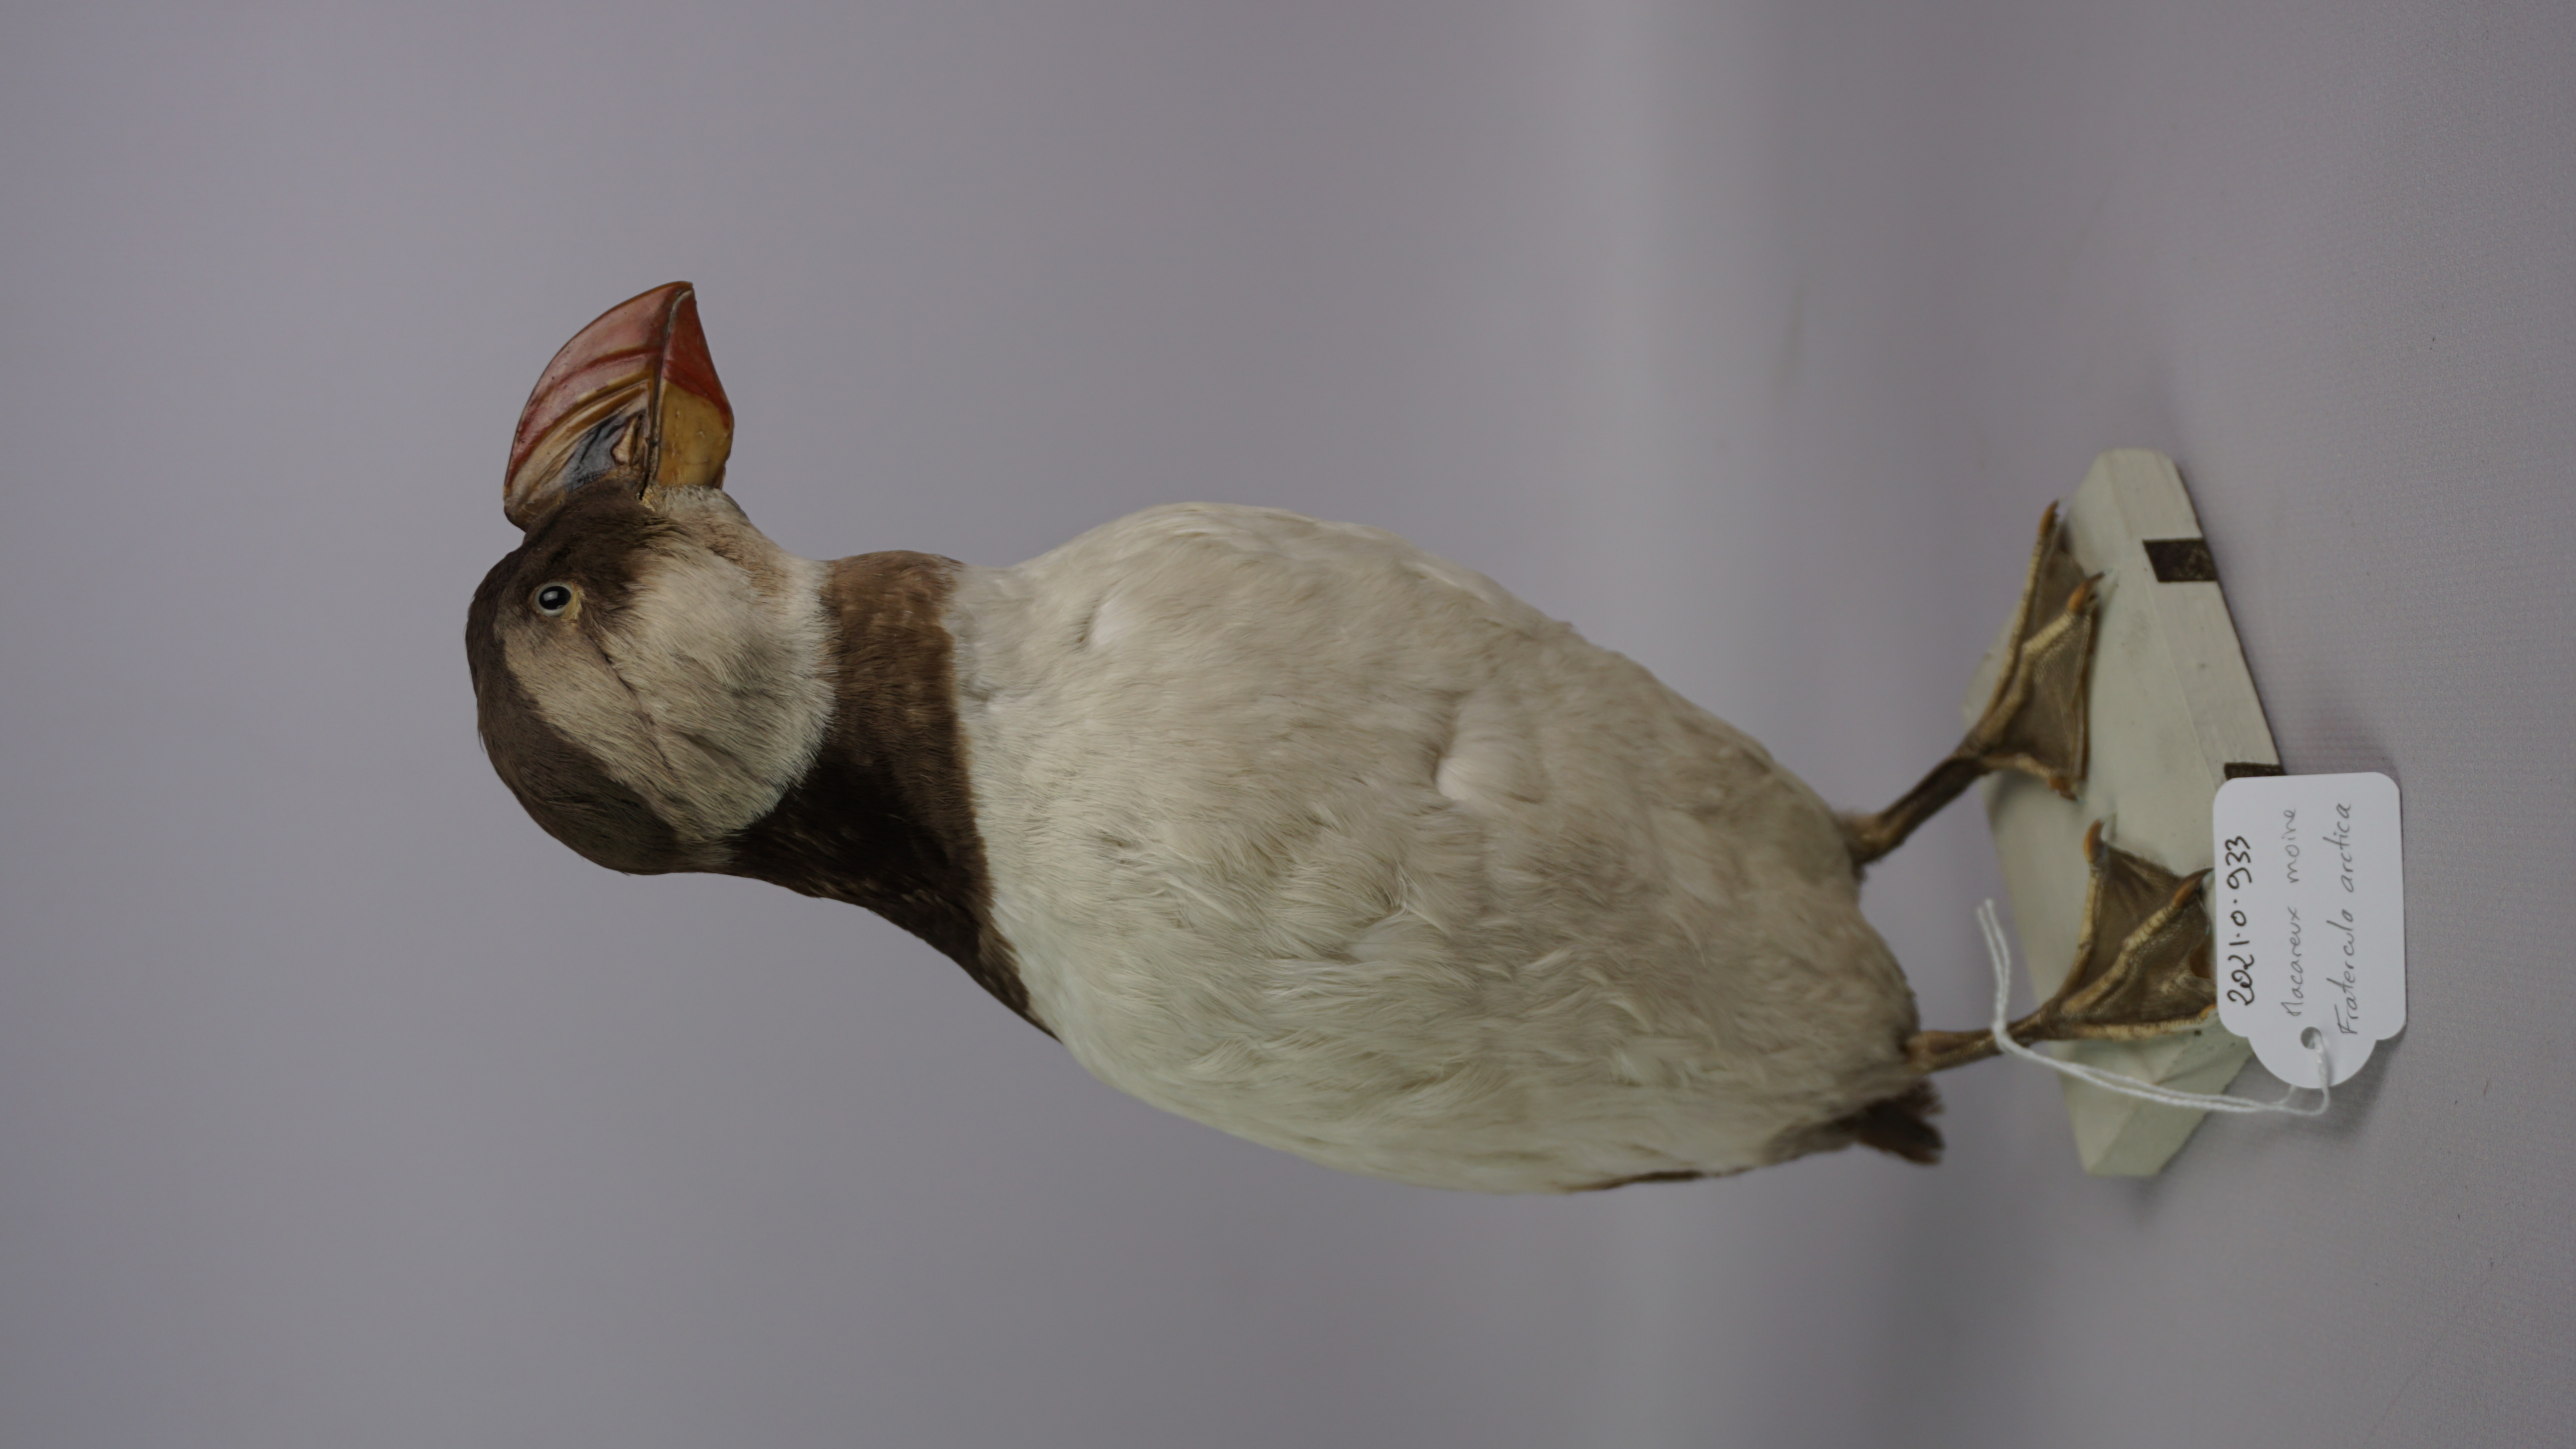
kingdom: Animalia
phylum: Chordata
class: Aves
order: Charadriiformes
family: Alcidae
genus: Fratercula
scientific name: Fratercula arctica
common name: Atlantic puffin
